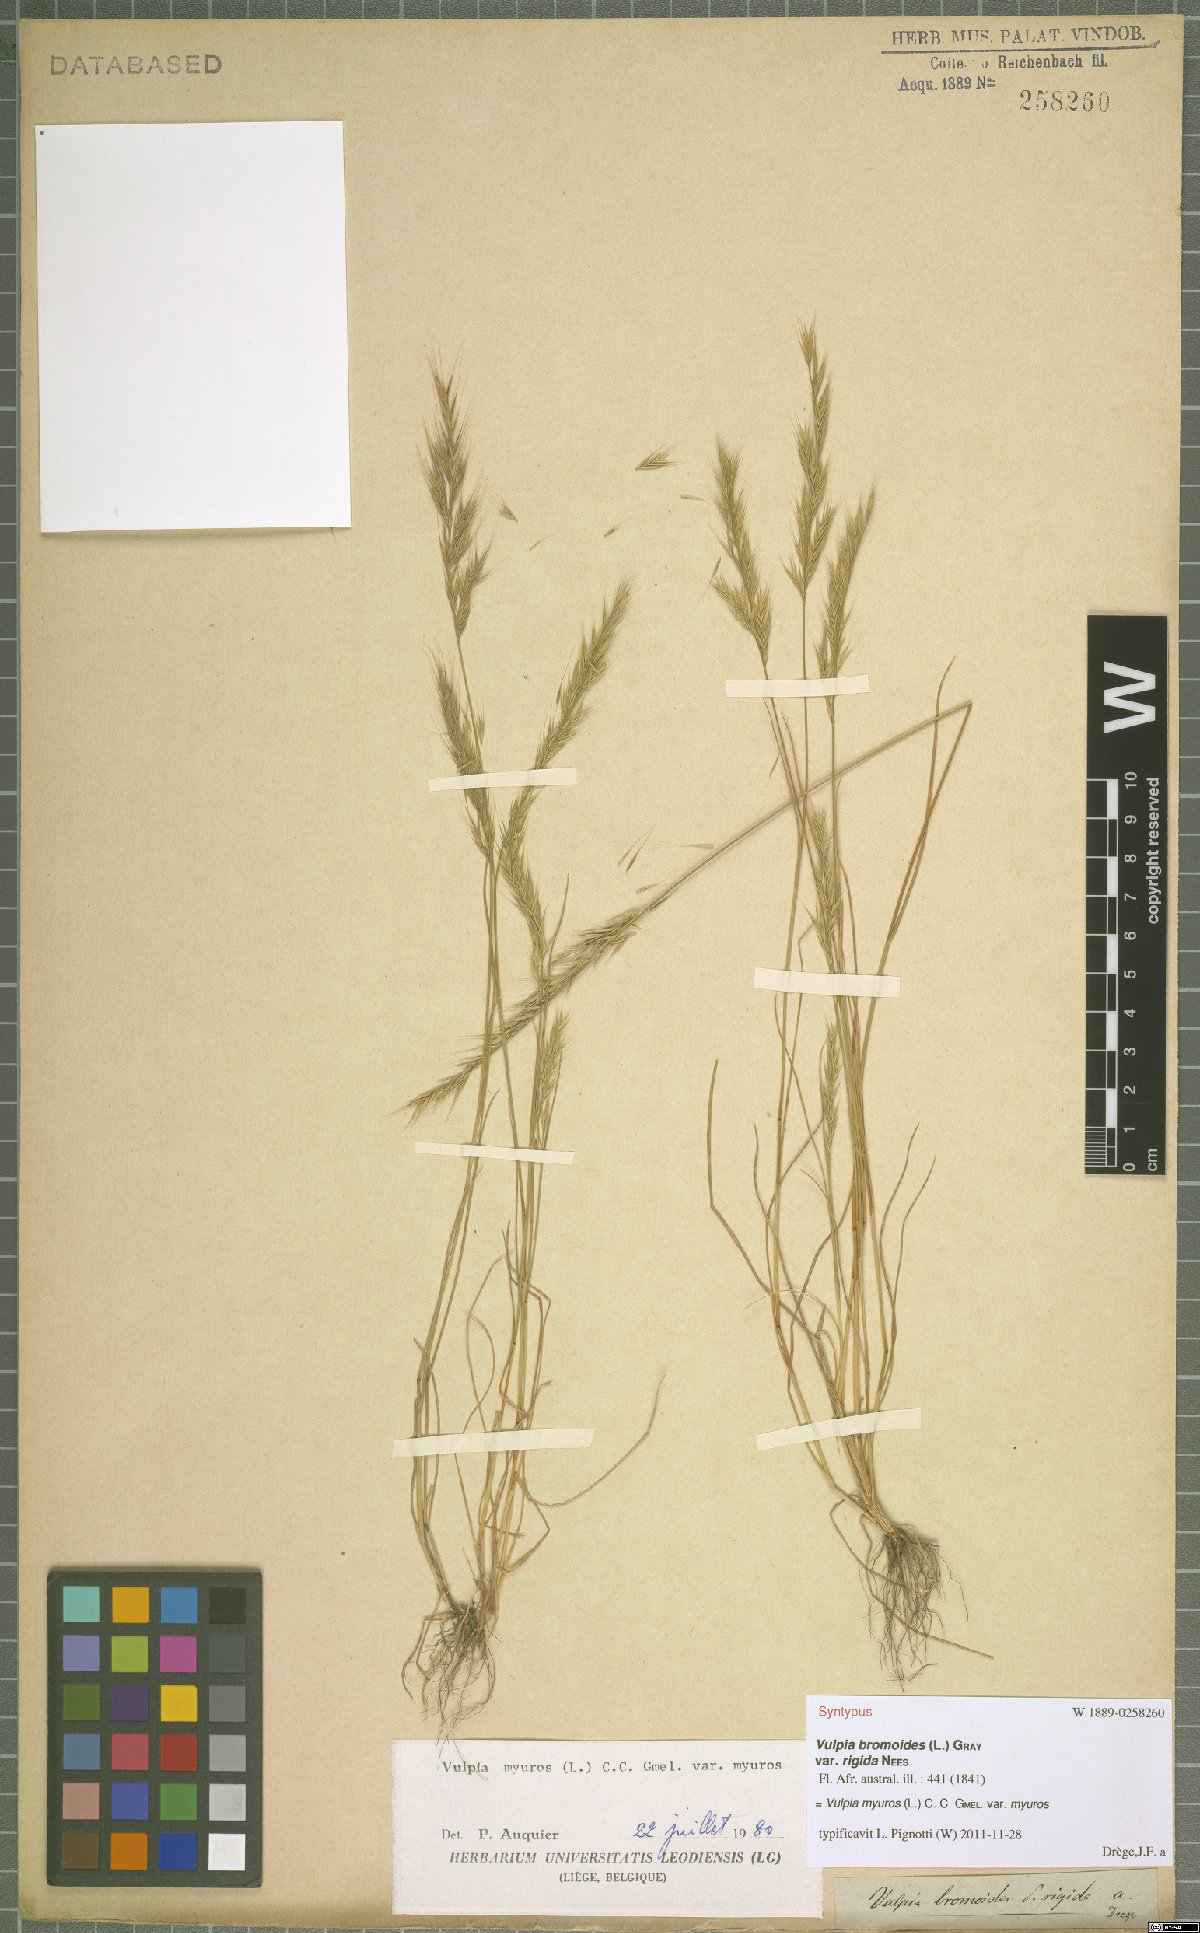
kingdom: Plantae
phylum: Tracheophyta
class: Liliopsida
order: Poales
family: Poaceae
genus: Festuca
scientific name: Festuca myuros
